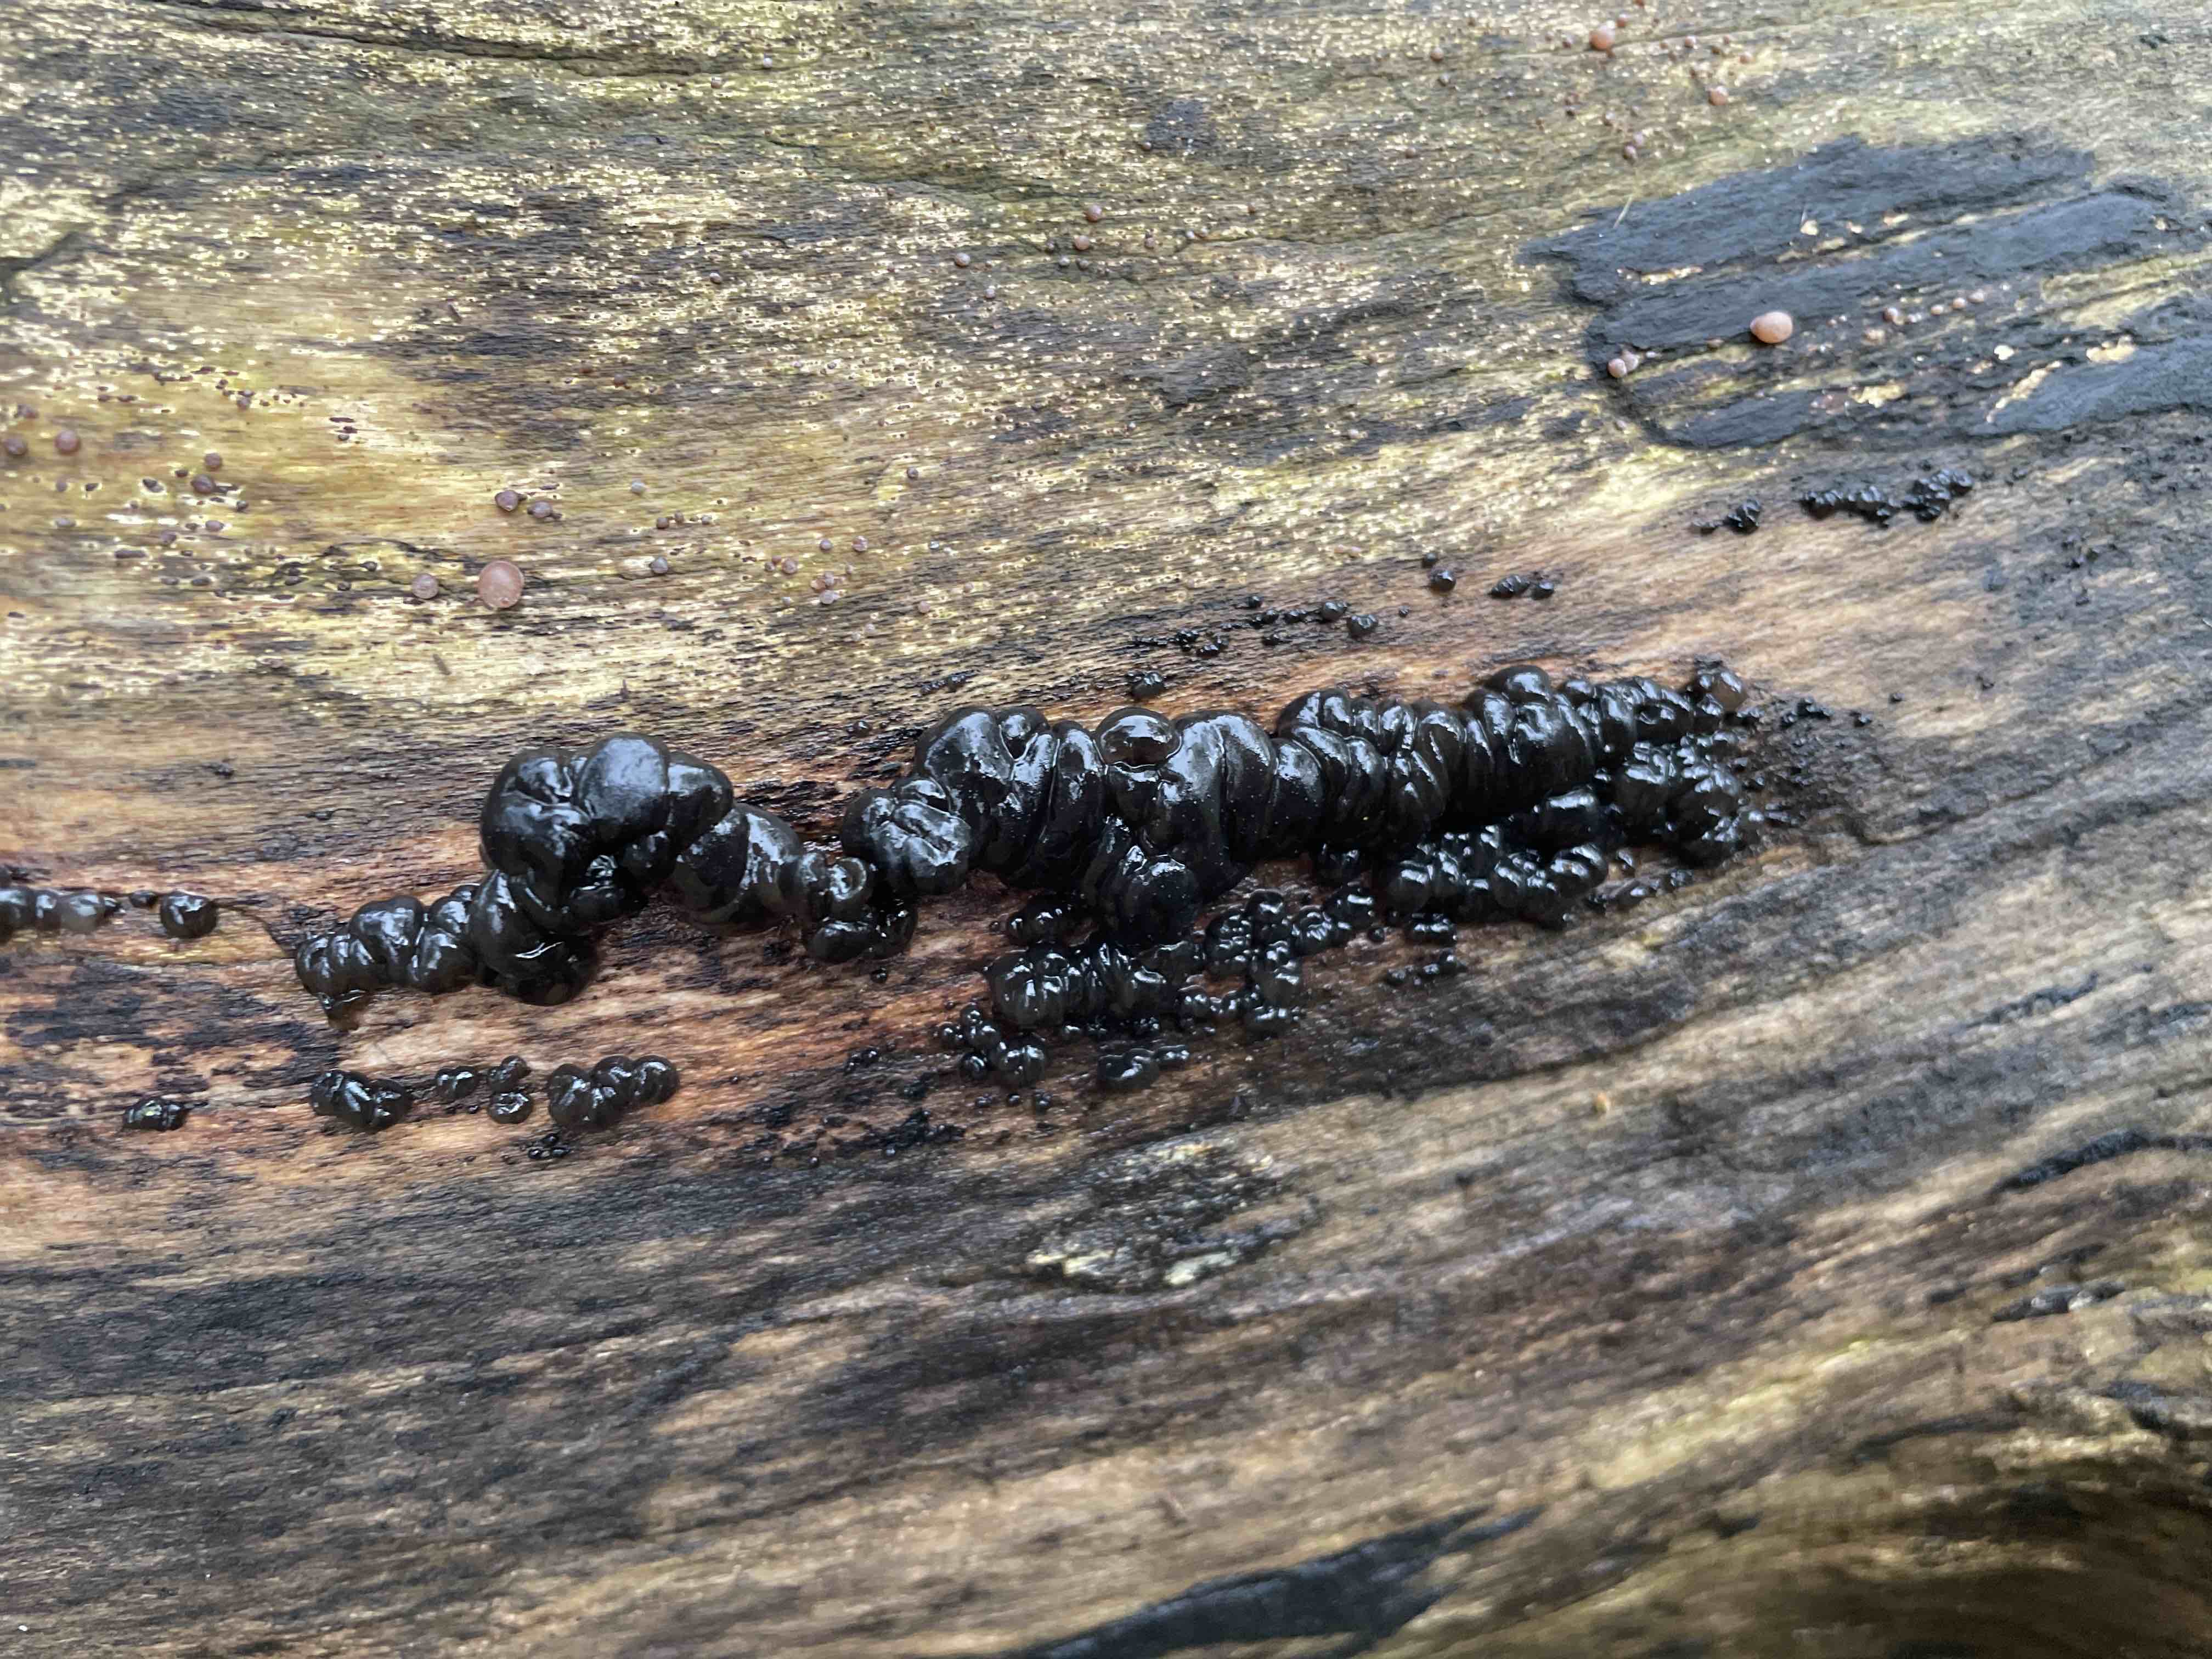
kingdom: Fungi
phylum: Basidiomycota
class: Agaricomycetes
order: Auriculariales
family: Auriculariaceae
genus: Exidia
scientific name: Exidia nigricans
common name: almindelig bævretop
